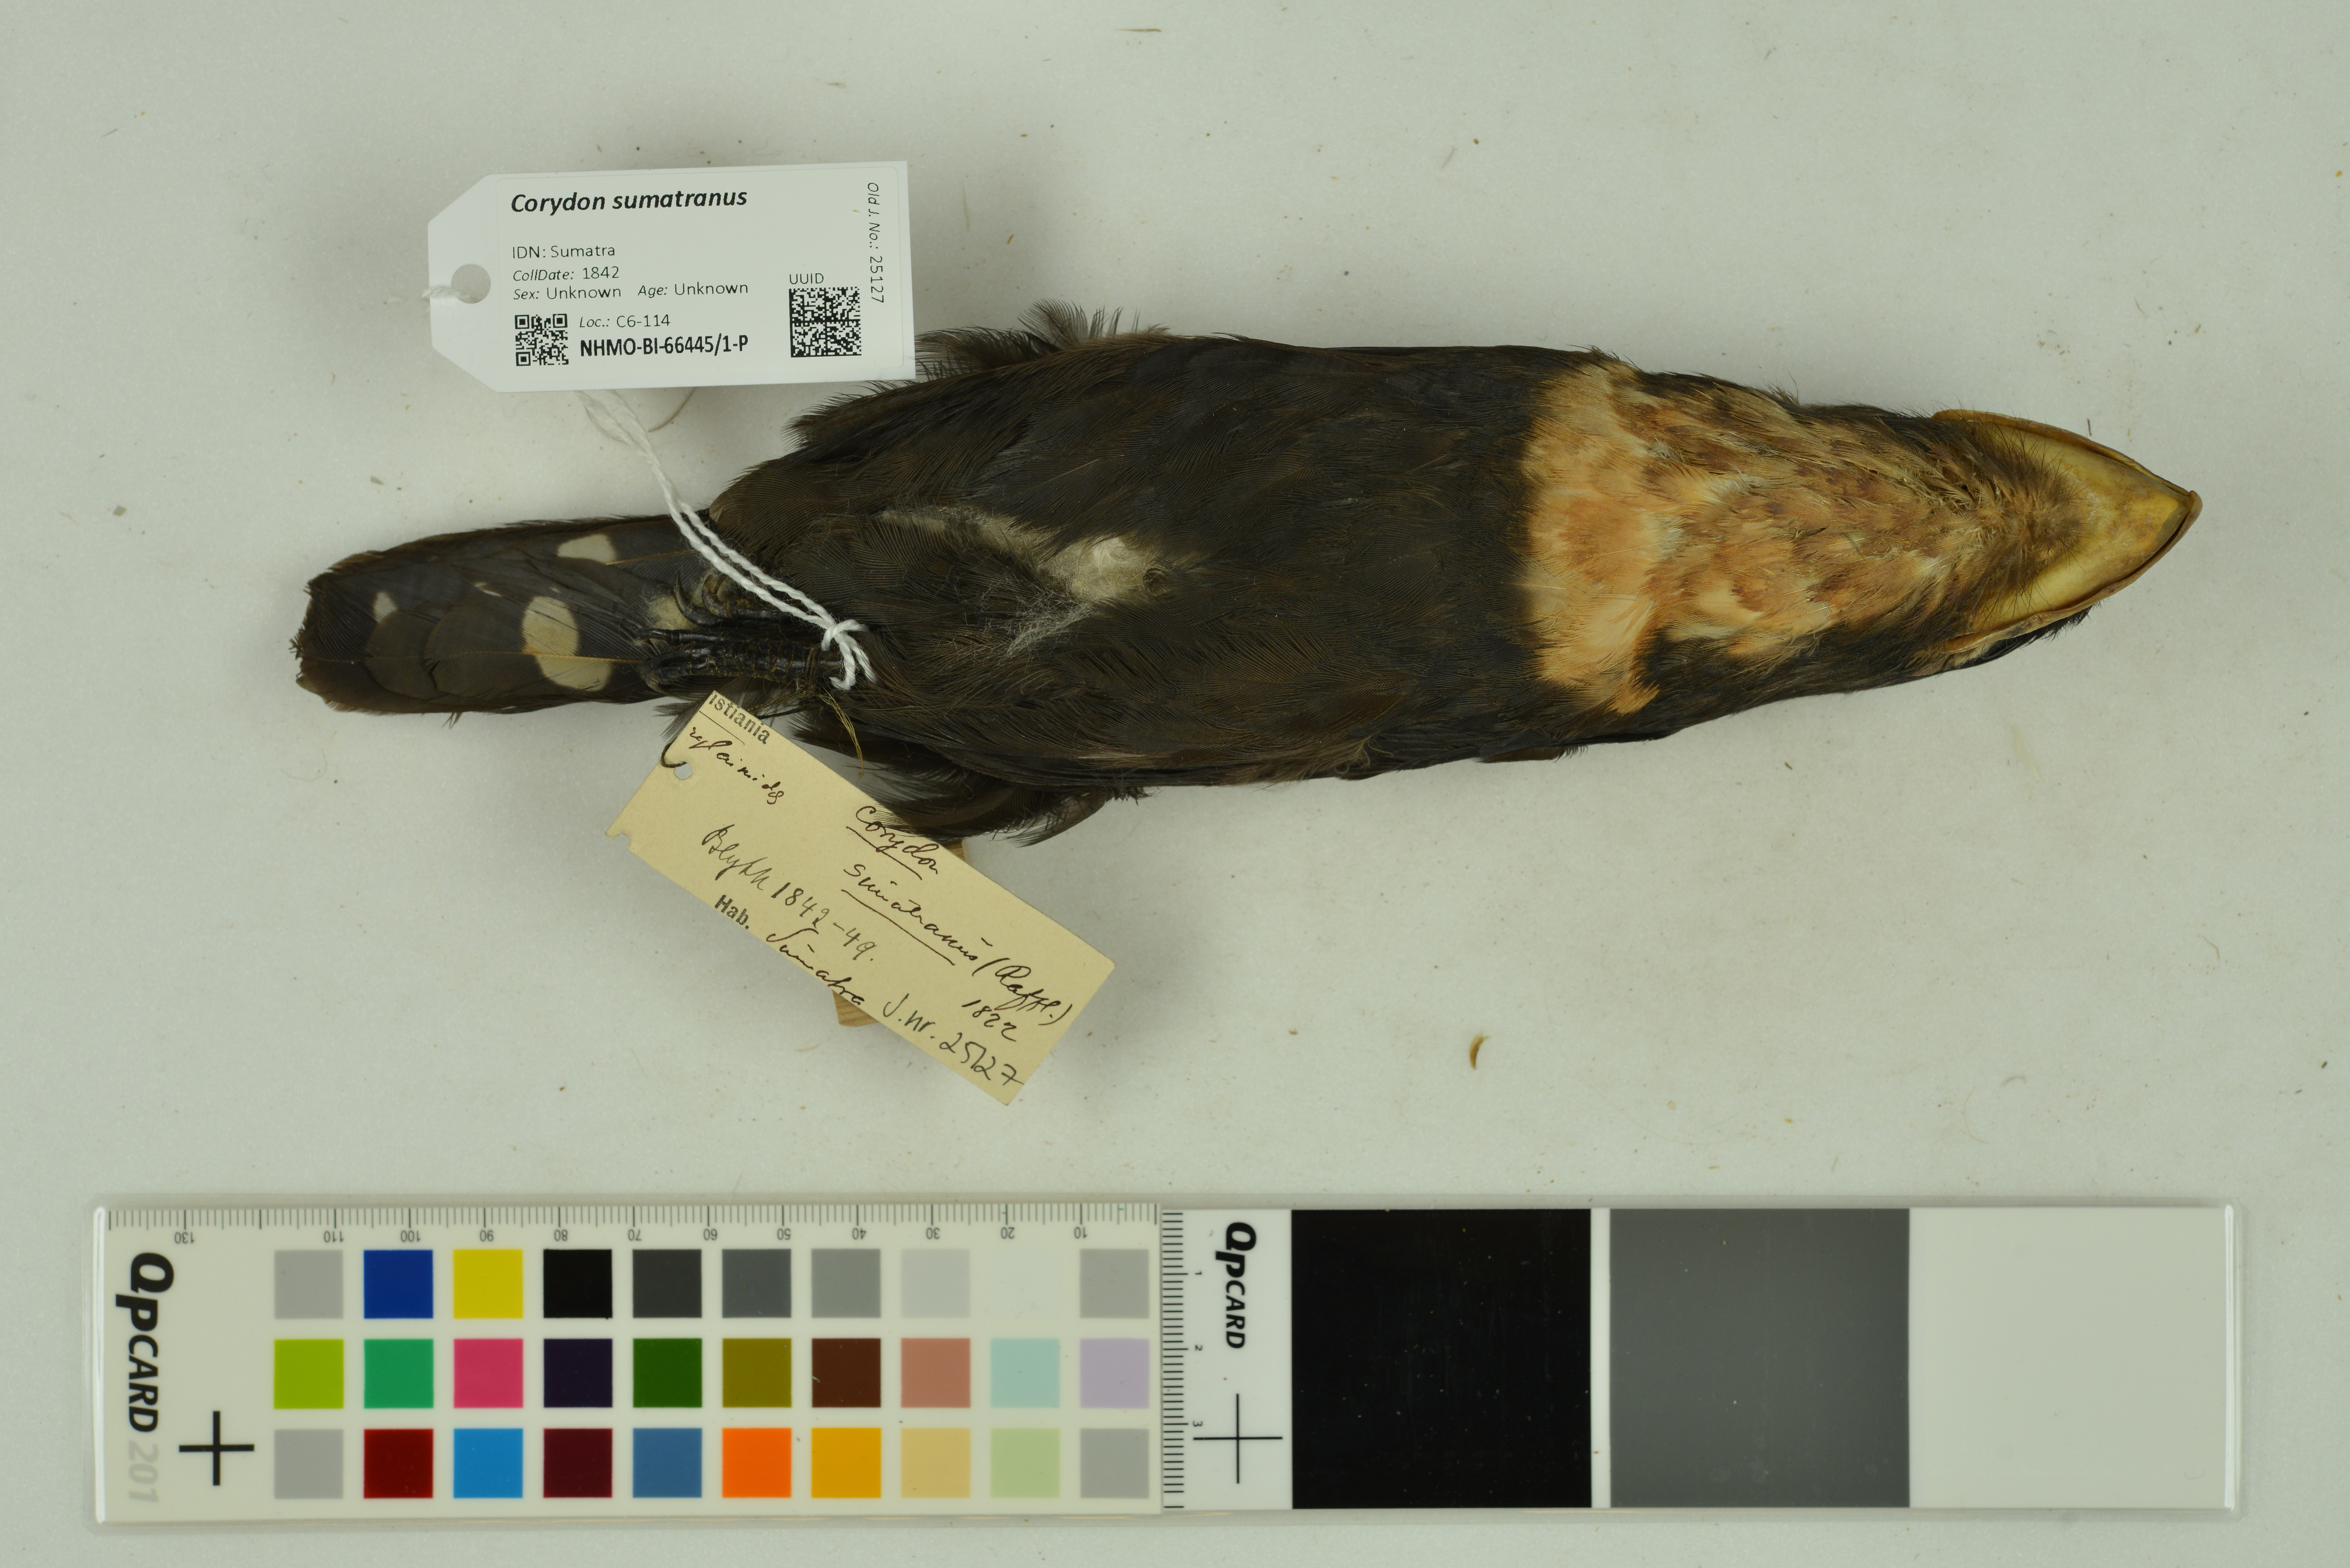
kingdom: Animalia
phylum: Chordata
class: Aves
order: Passeriformes
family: Eurylaimidae
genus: Corydon
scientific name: Corydon sumatranus
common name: Dusky broadbill
